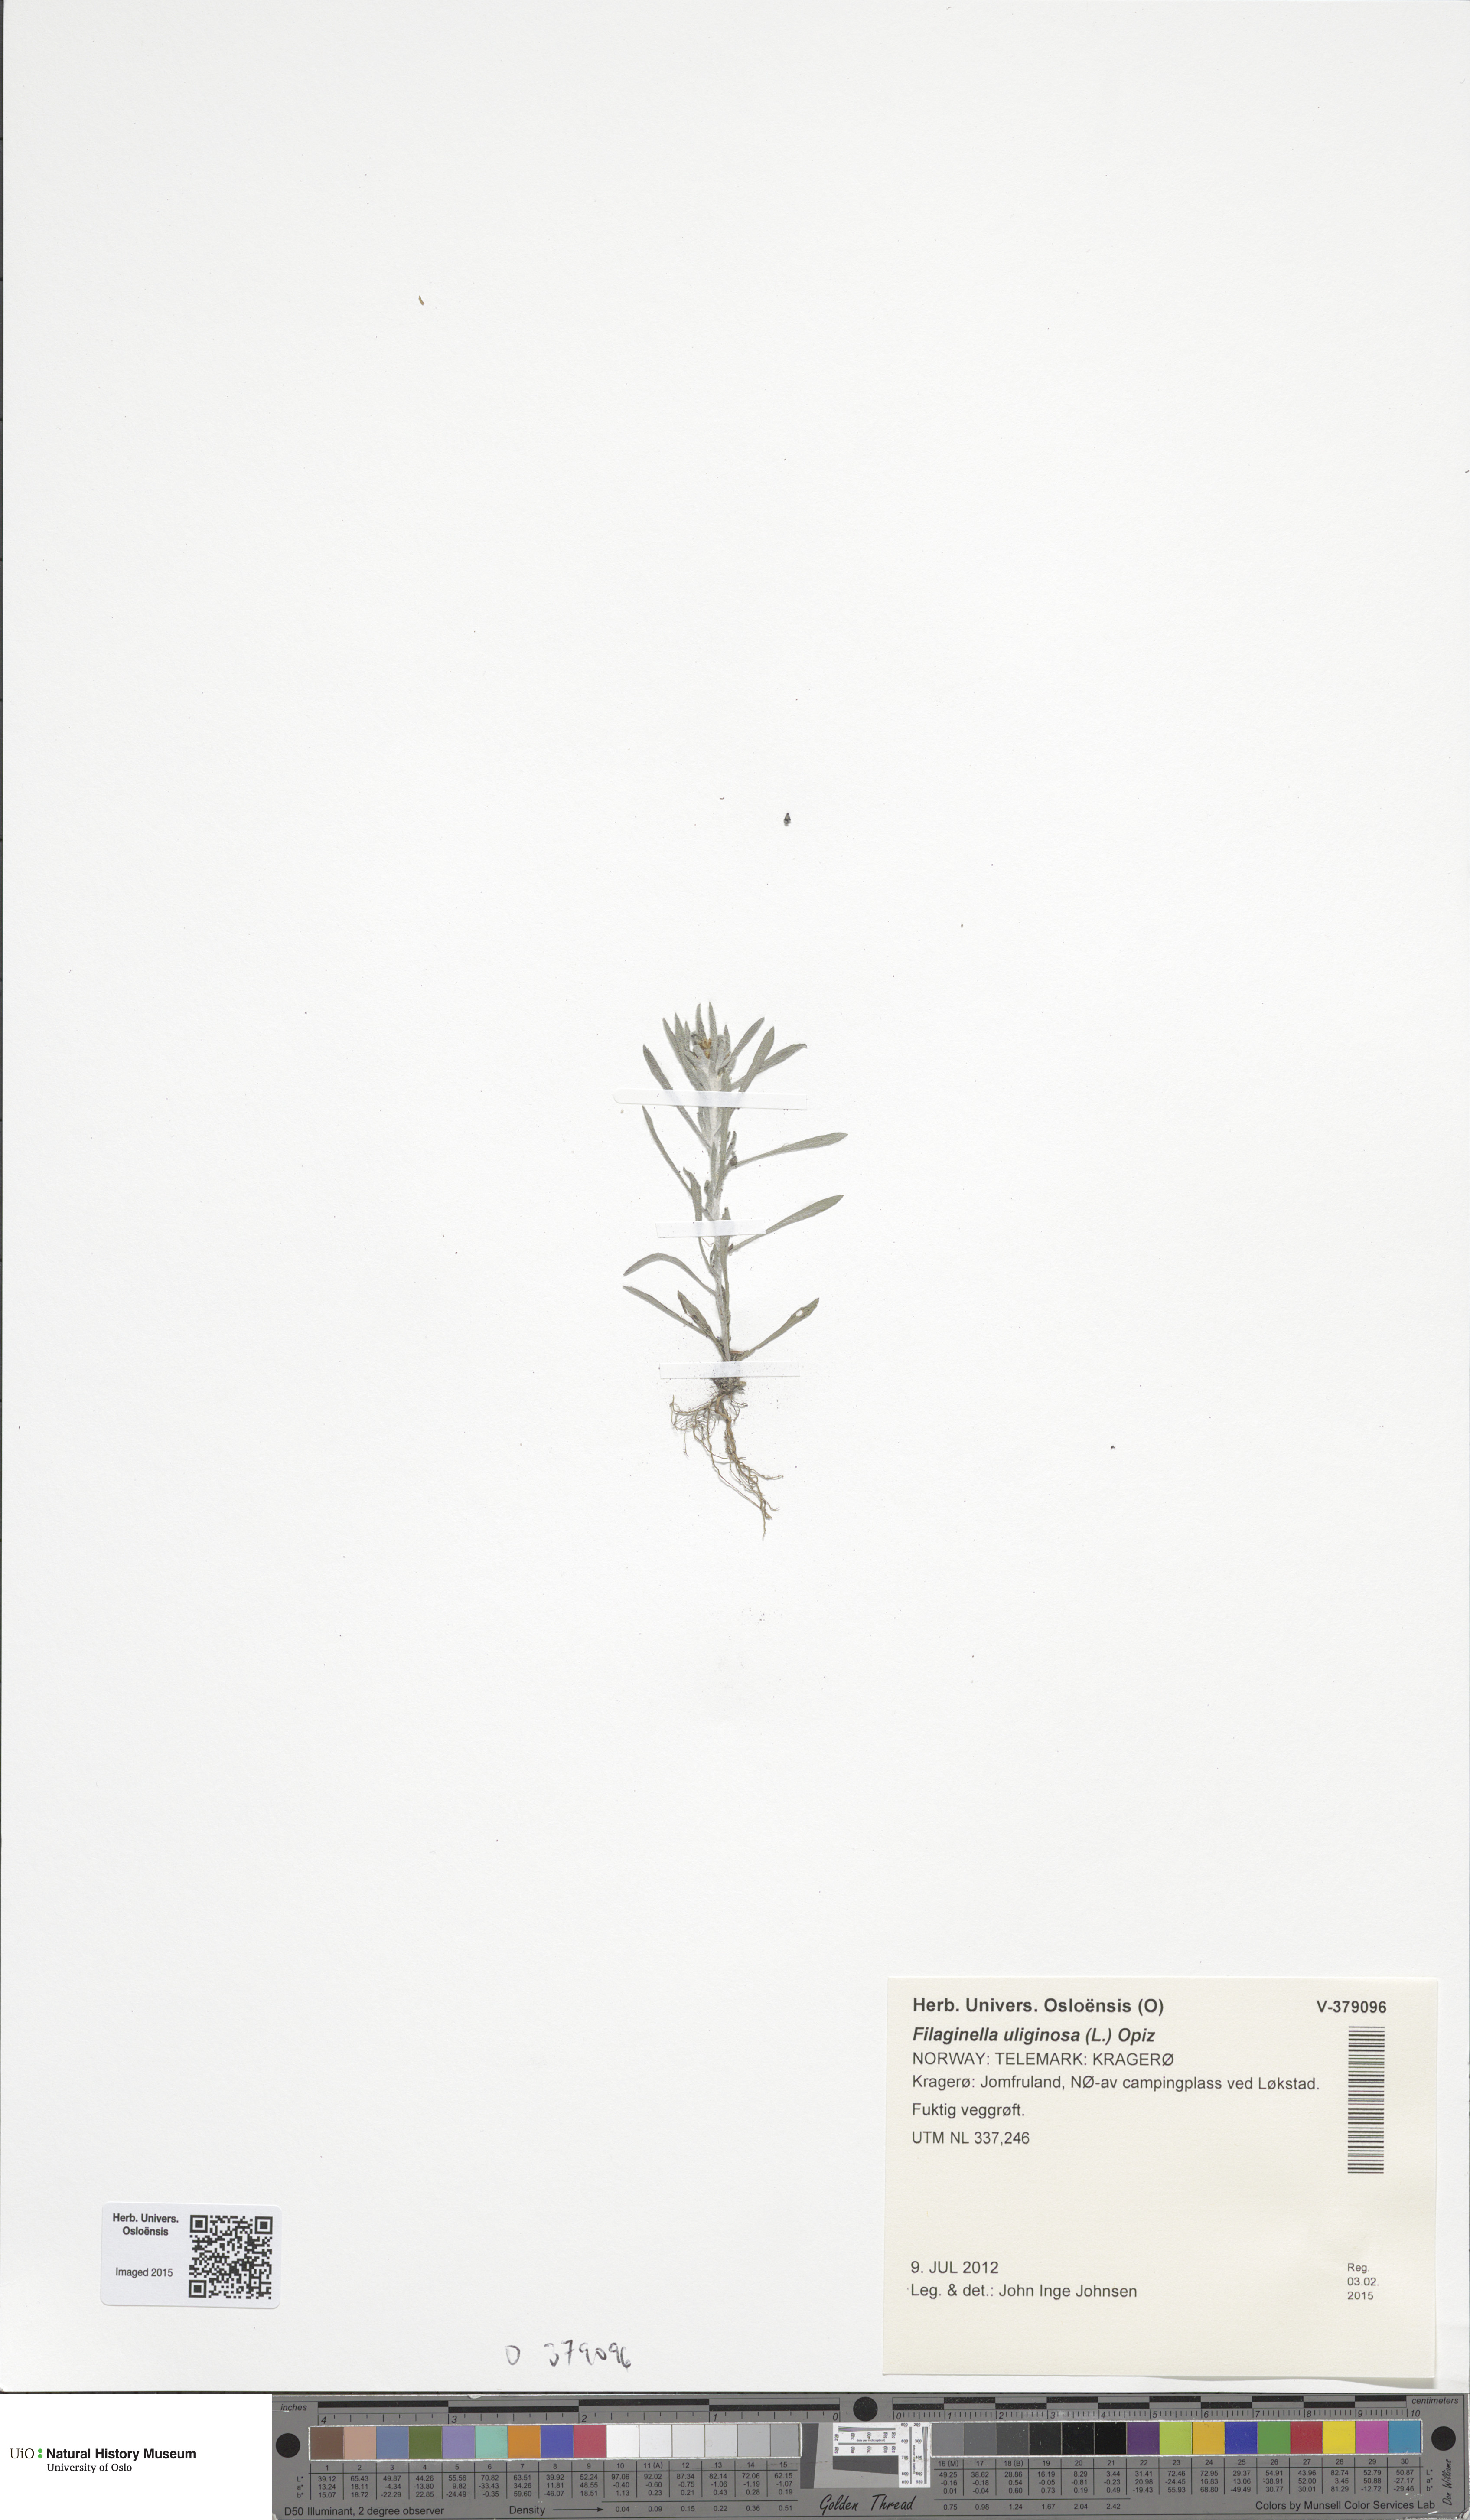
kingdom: Plantae
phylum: Tracheophyta
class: Magnoliopsida
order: Asterales
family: Asteraceae
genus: Gnaphalium
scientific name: Gnaphalium uliginosum
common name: Marsh cudweed
